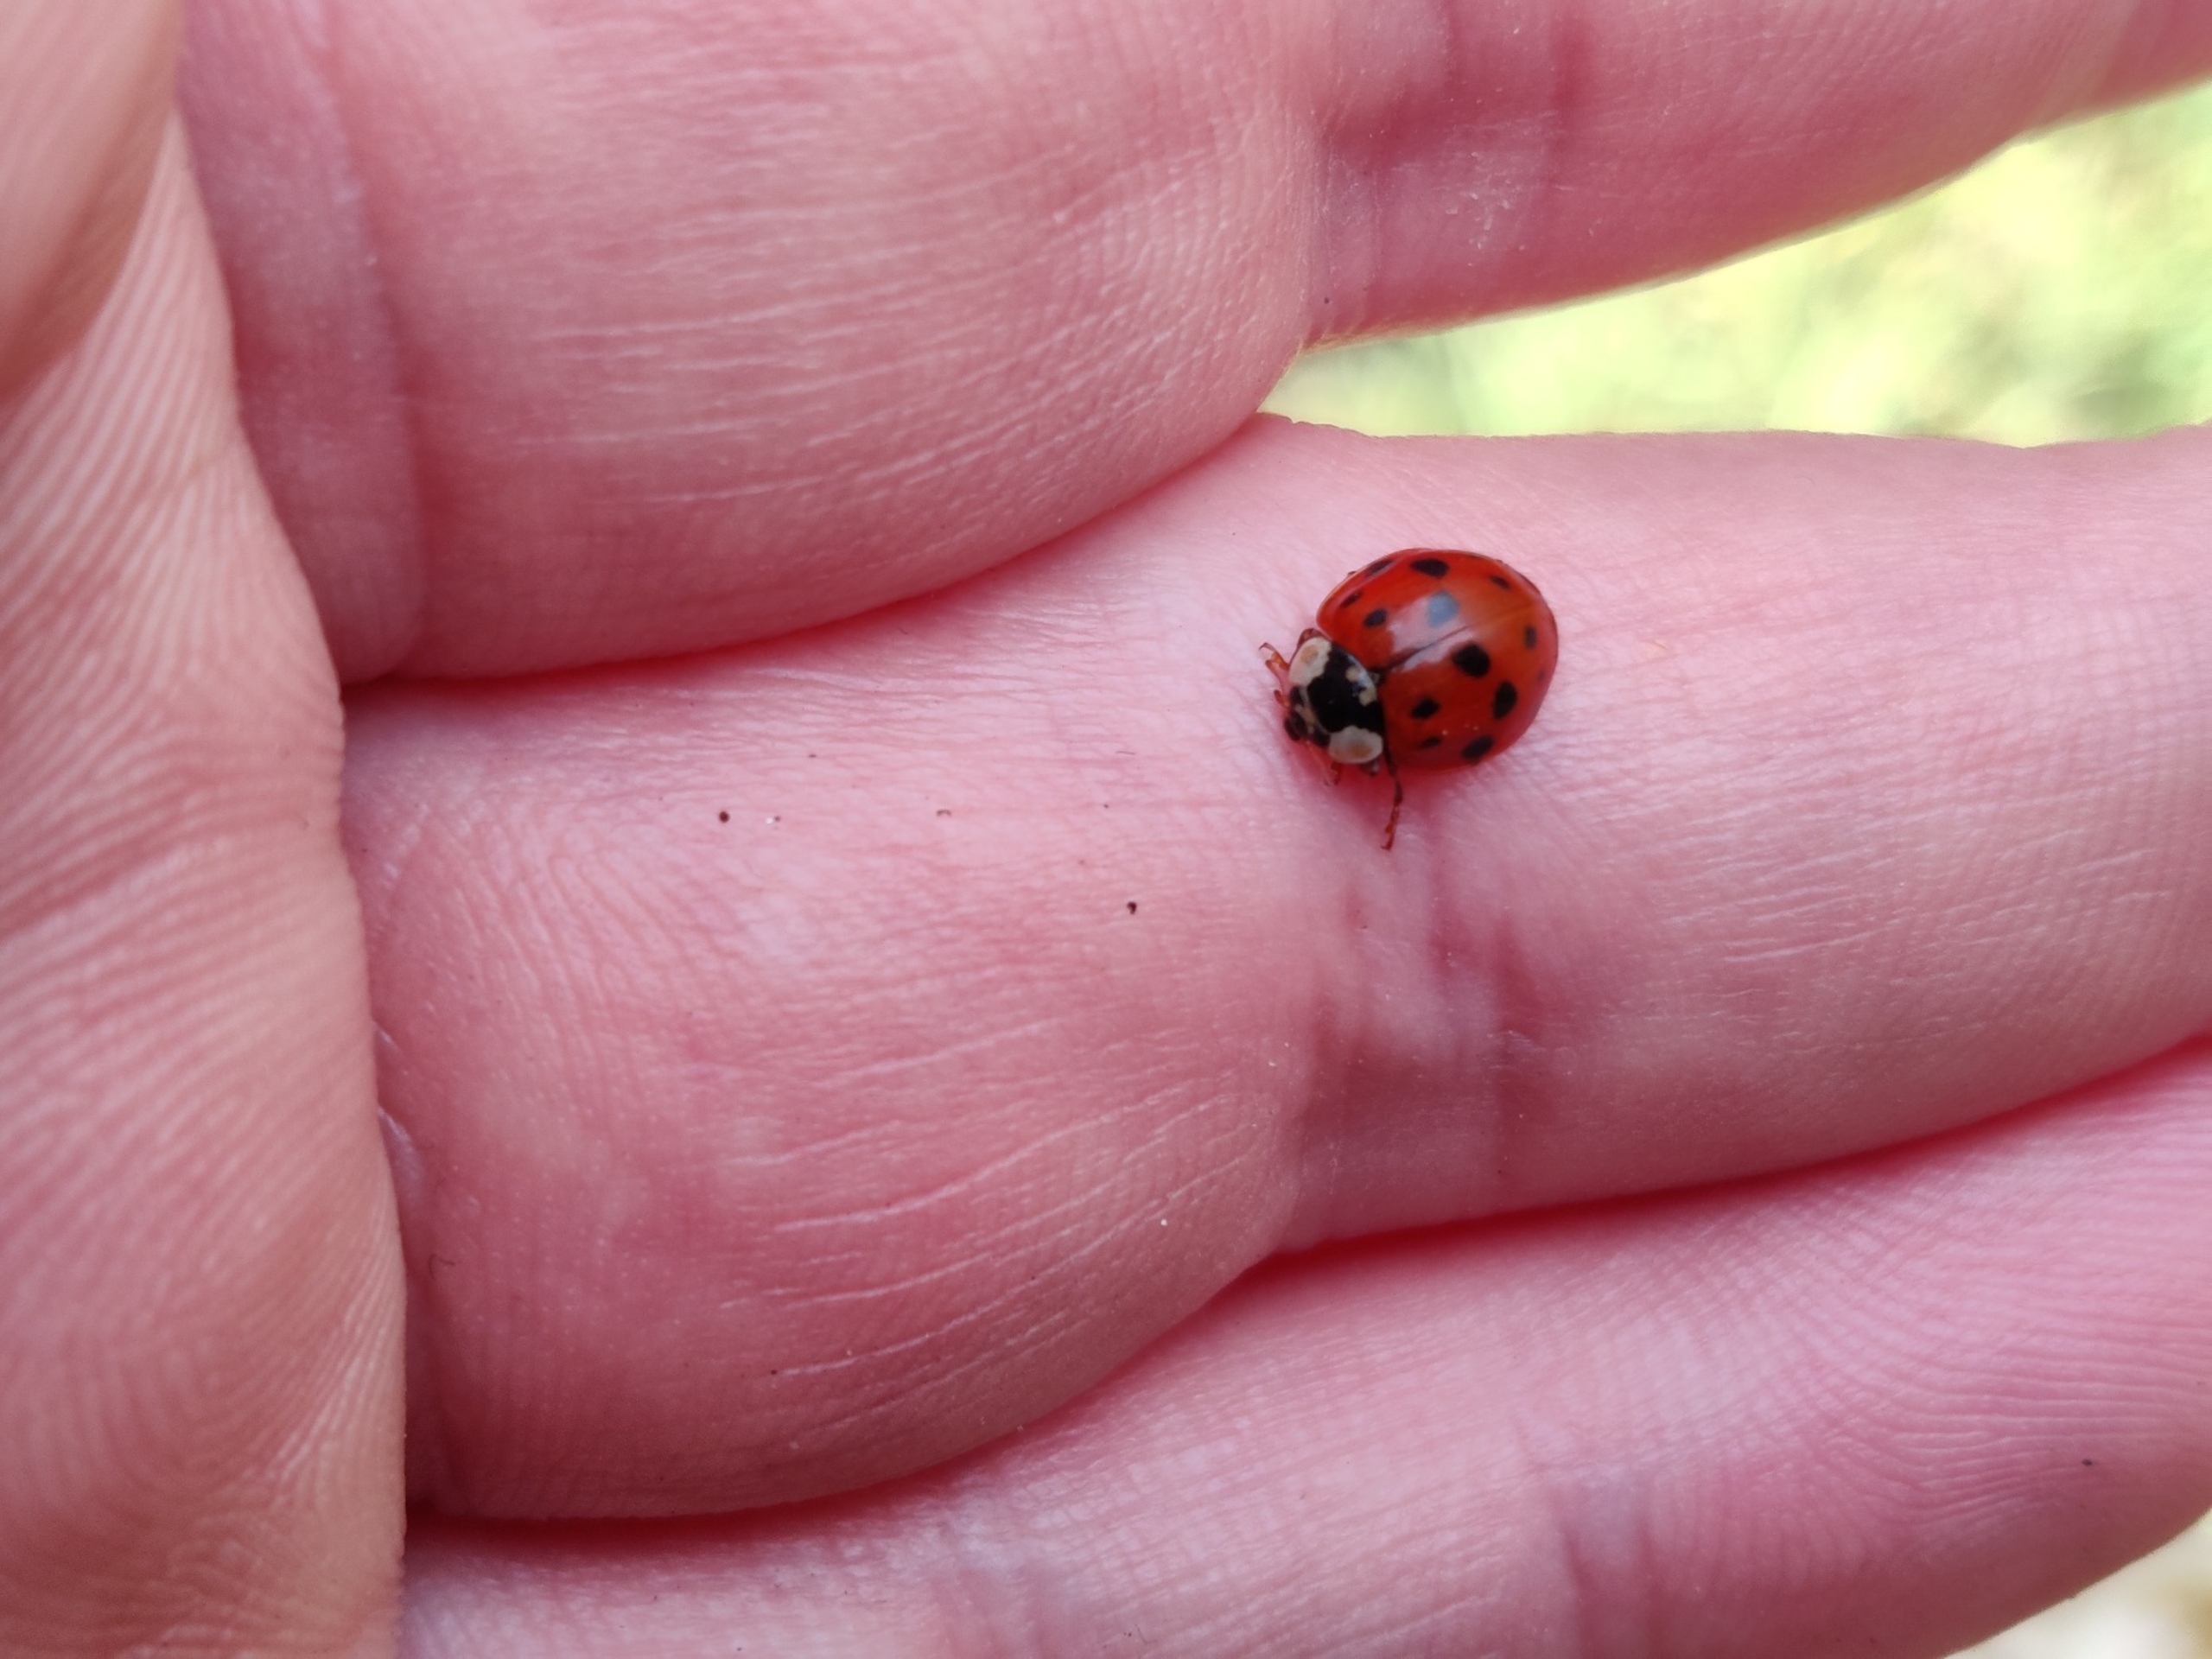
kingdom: Animalia
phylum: Arthropoda
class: Insecta
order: Coleoptera
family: Coccinellidae
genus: Harmonia
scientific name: Harmonia axyridis
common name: Harlekinmariehøne
